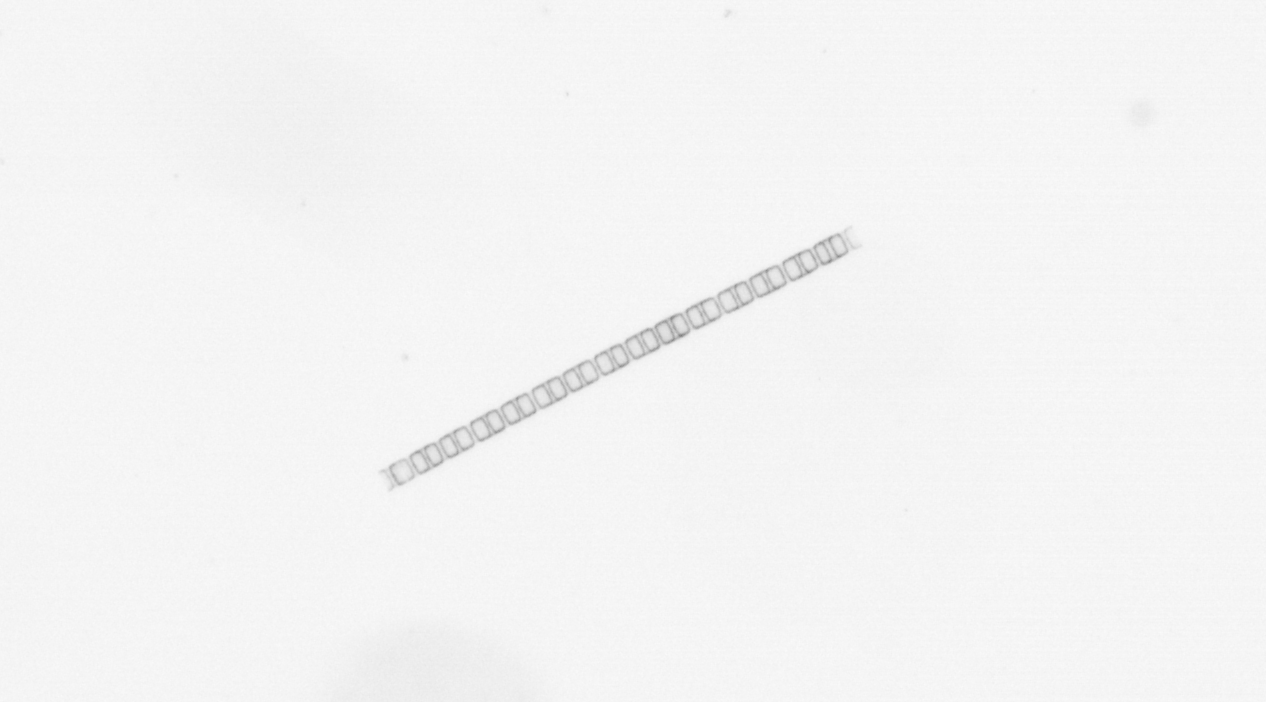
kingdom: Chromista
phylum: Ochrophyta
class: Bacillariophyceae
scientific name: Bacillariophyceae
